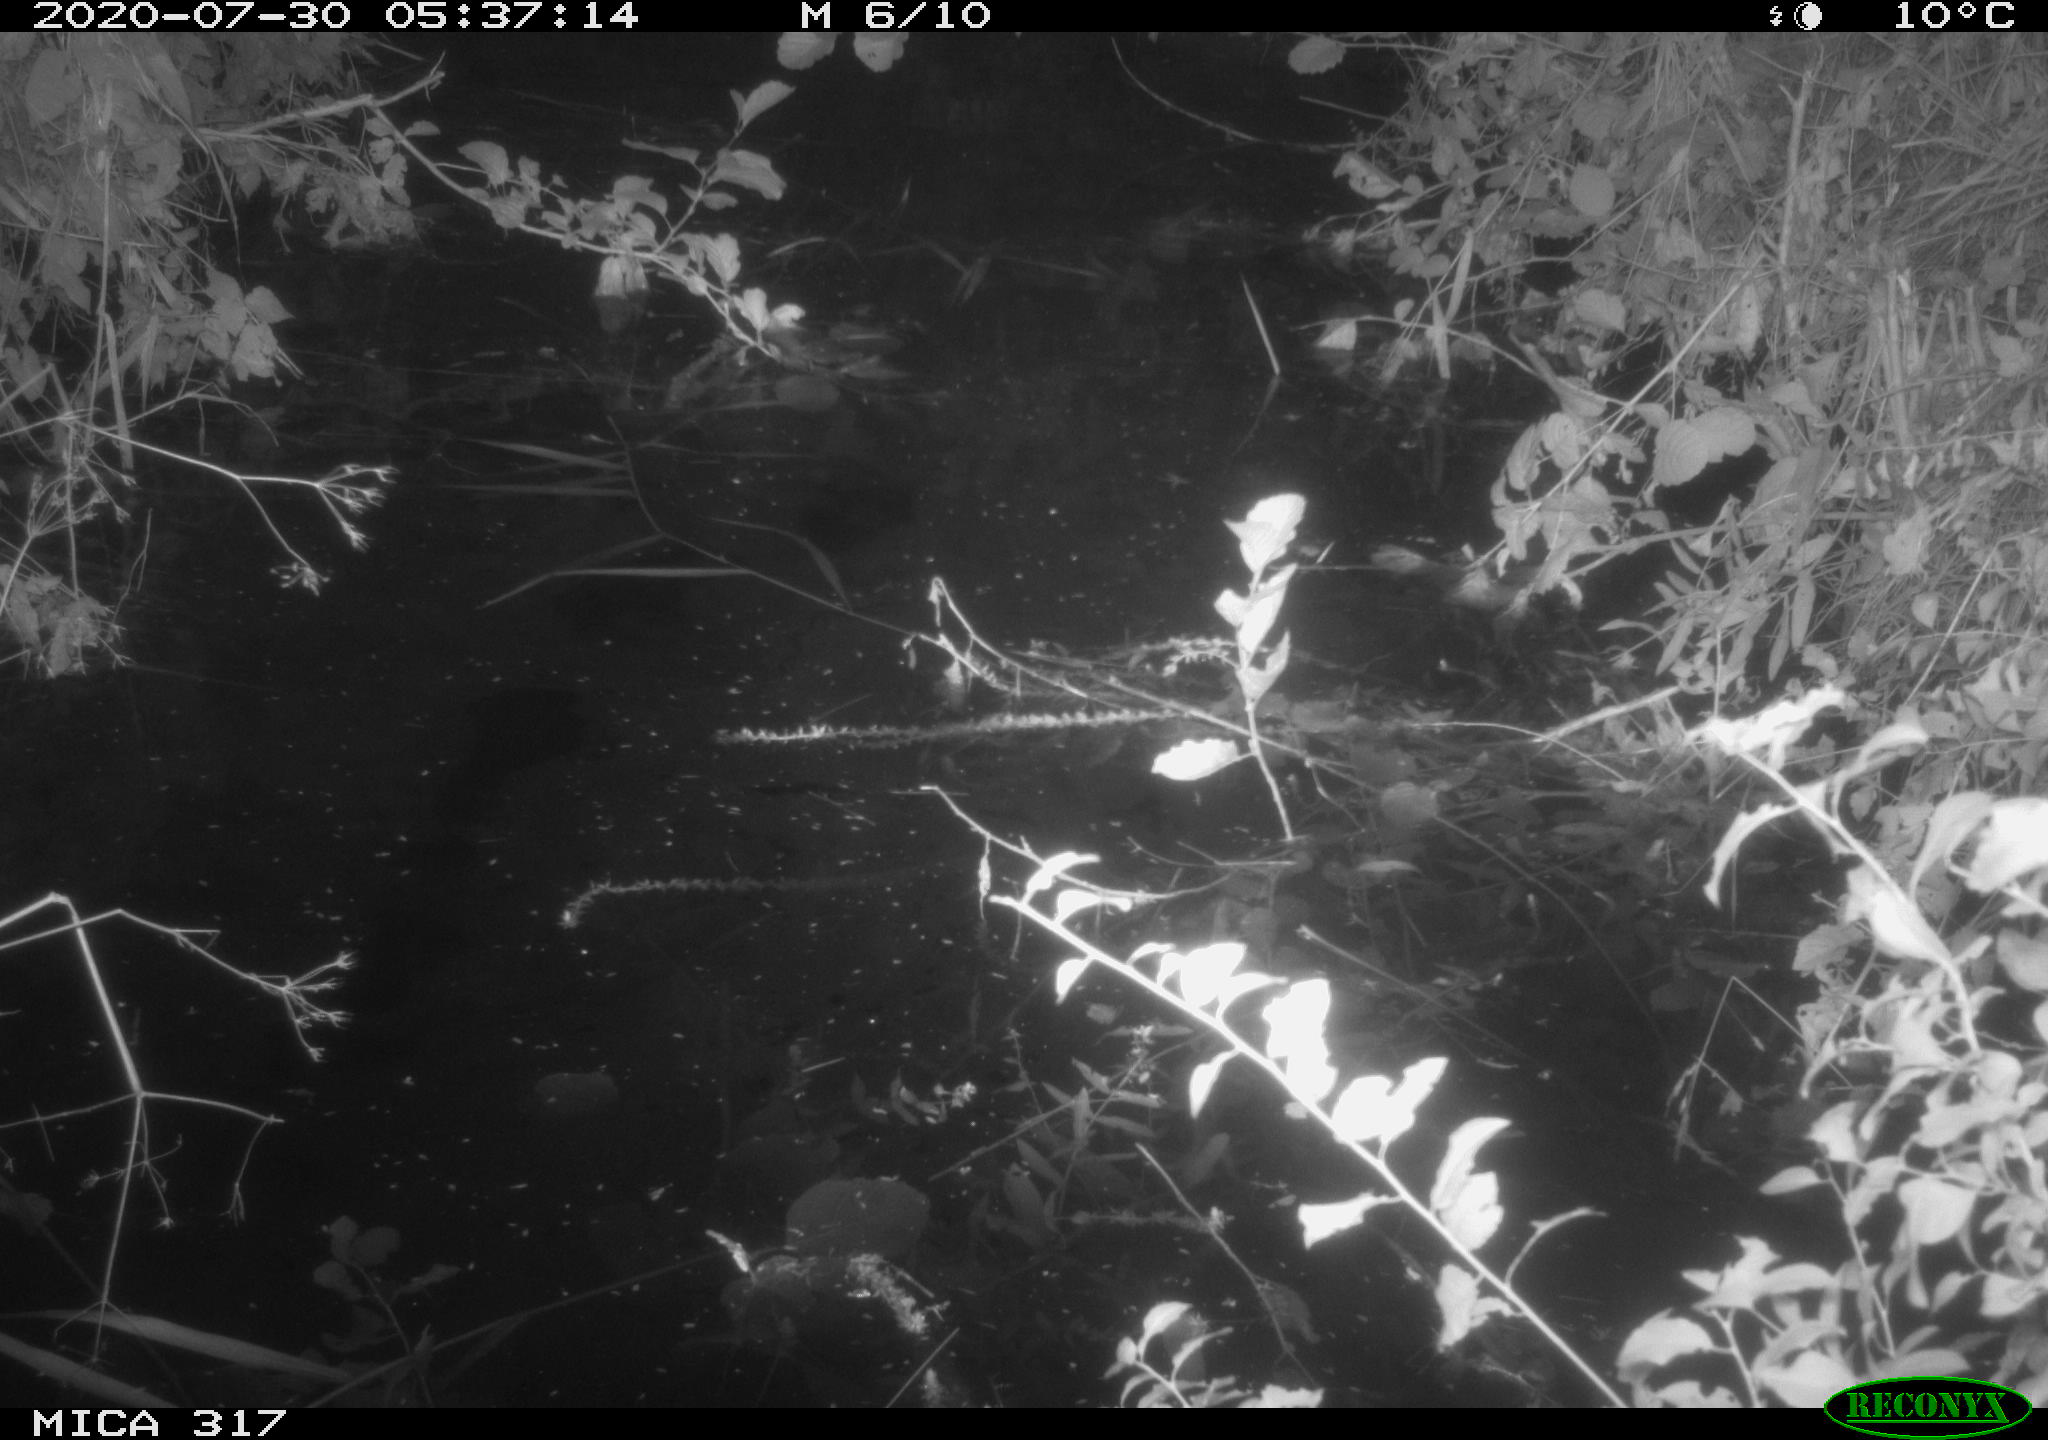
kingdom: Animalia
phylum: Chordata
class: Aves
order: Anseriformes
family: Anatidae
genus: Anas
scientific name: Anas platyrhynchos
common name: Mallard
